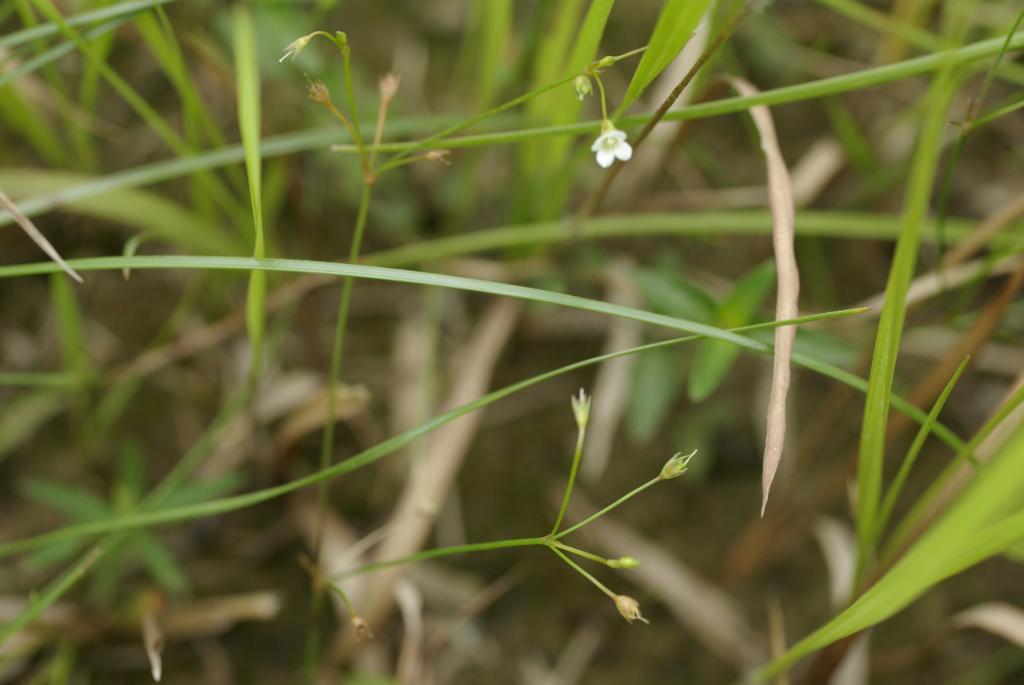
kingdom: Plantae
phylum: Tracheophyta
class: Magnoliopsida
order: Gentianales
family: Loganiaceae
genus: Mitrasacme
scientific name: Mitrasacme pygmaea
